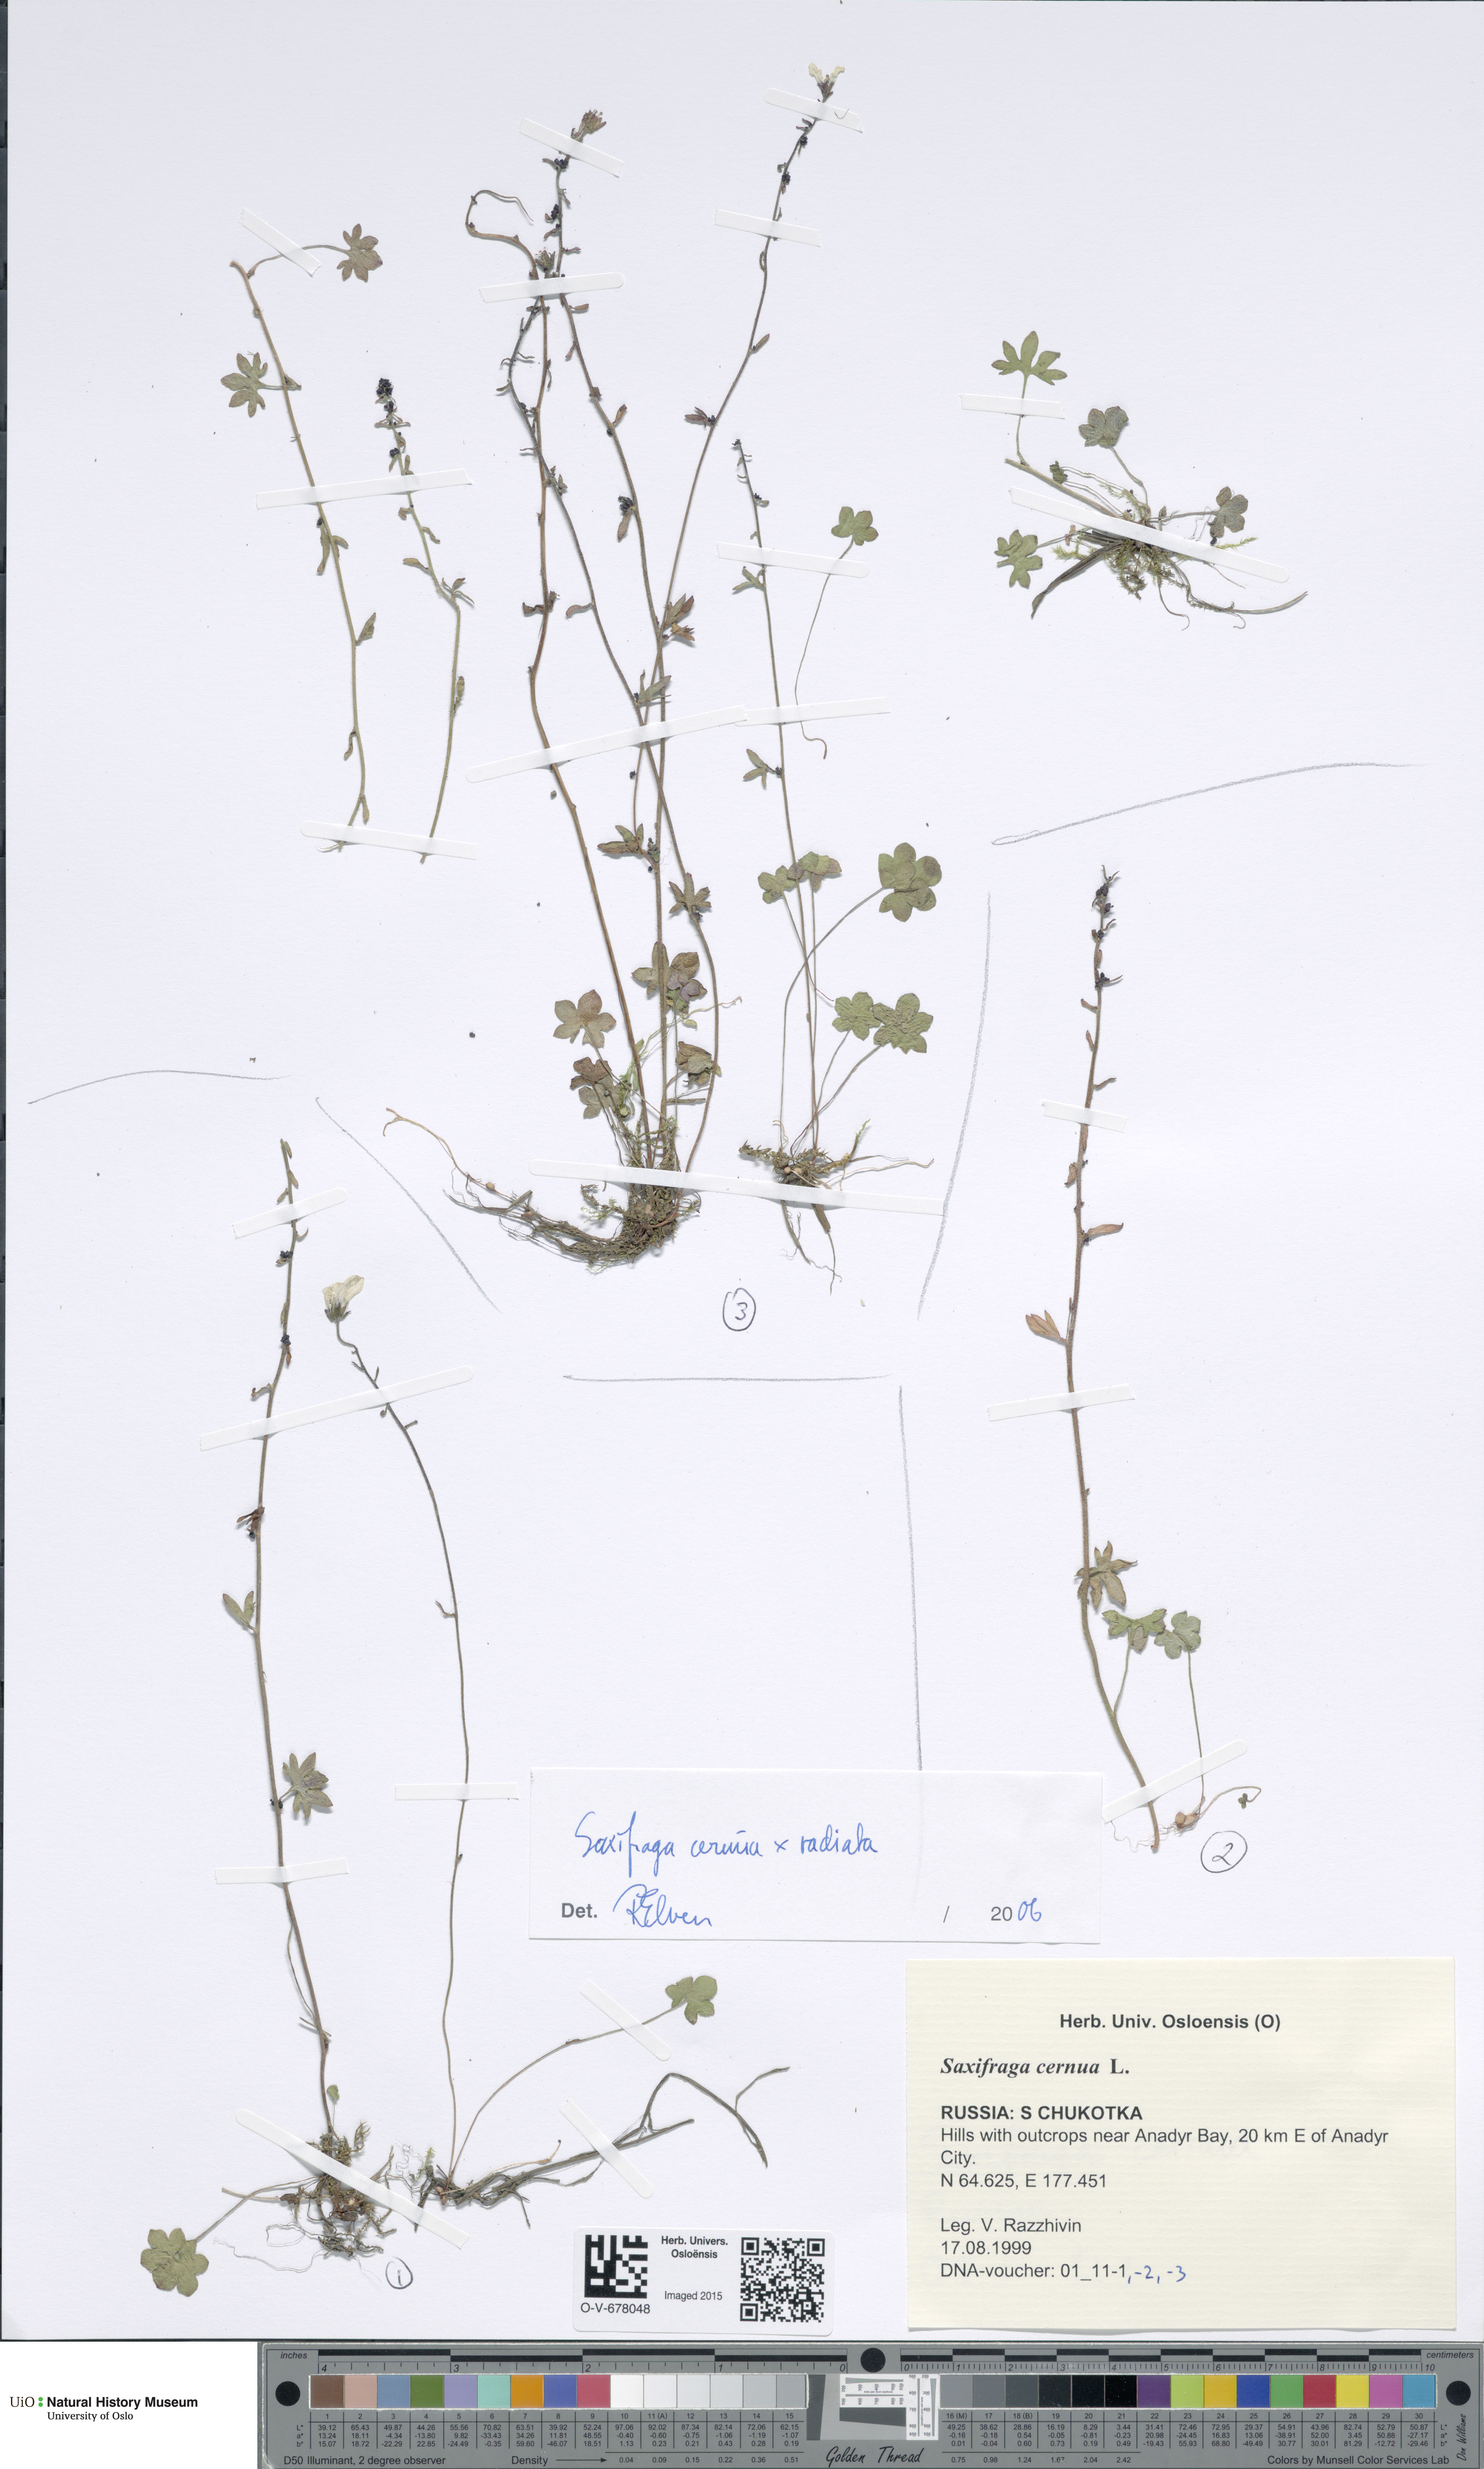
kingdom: Plantae
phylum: Tracheophyta
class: Magnoliopsida
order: Saxifragales
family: Saxifragaceae
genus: Saxifraga
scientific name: Saxifraga cernua
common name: Drooping saxifrage
